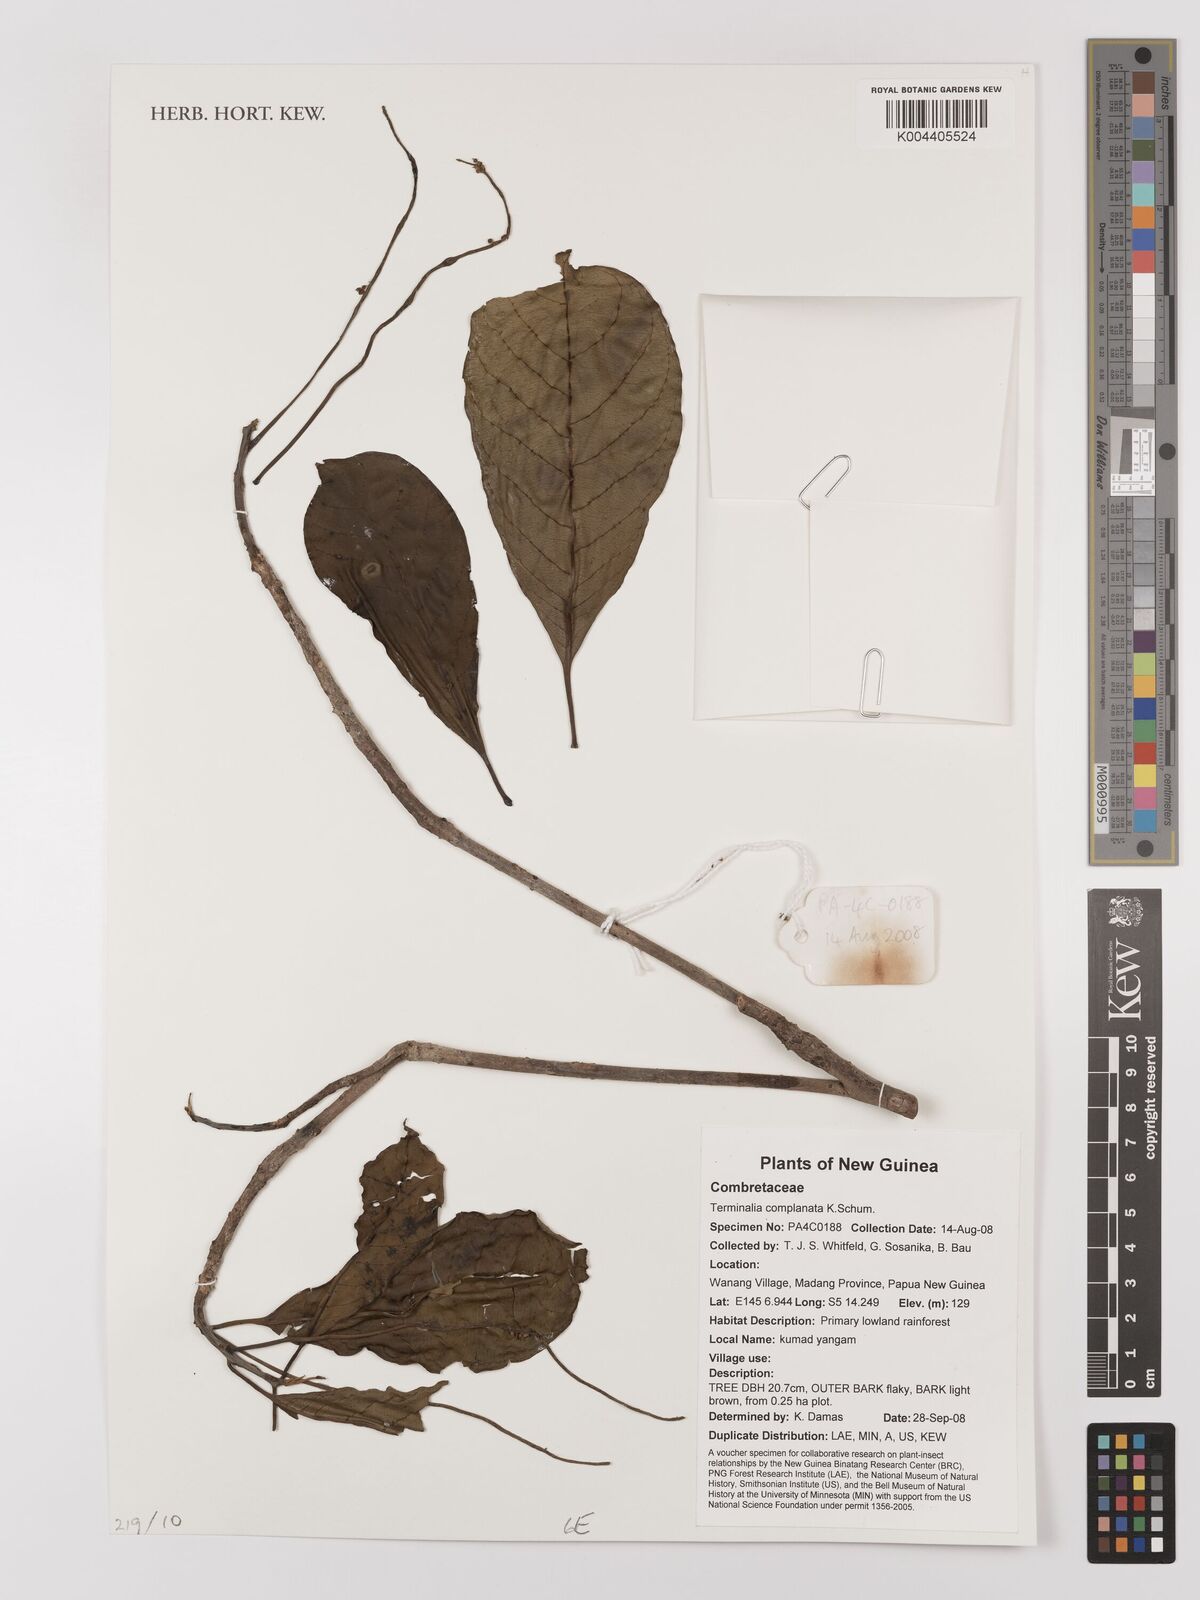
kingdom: Plantae
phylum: Tracheophyta
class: Magnoliopsida
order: Myrtales
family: Combretaceae
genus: Terminalia
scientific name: Terminalia complanata
